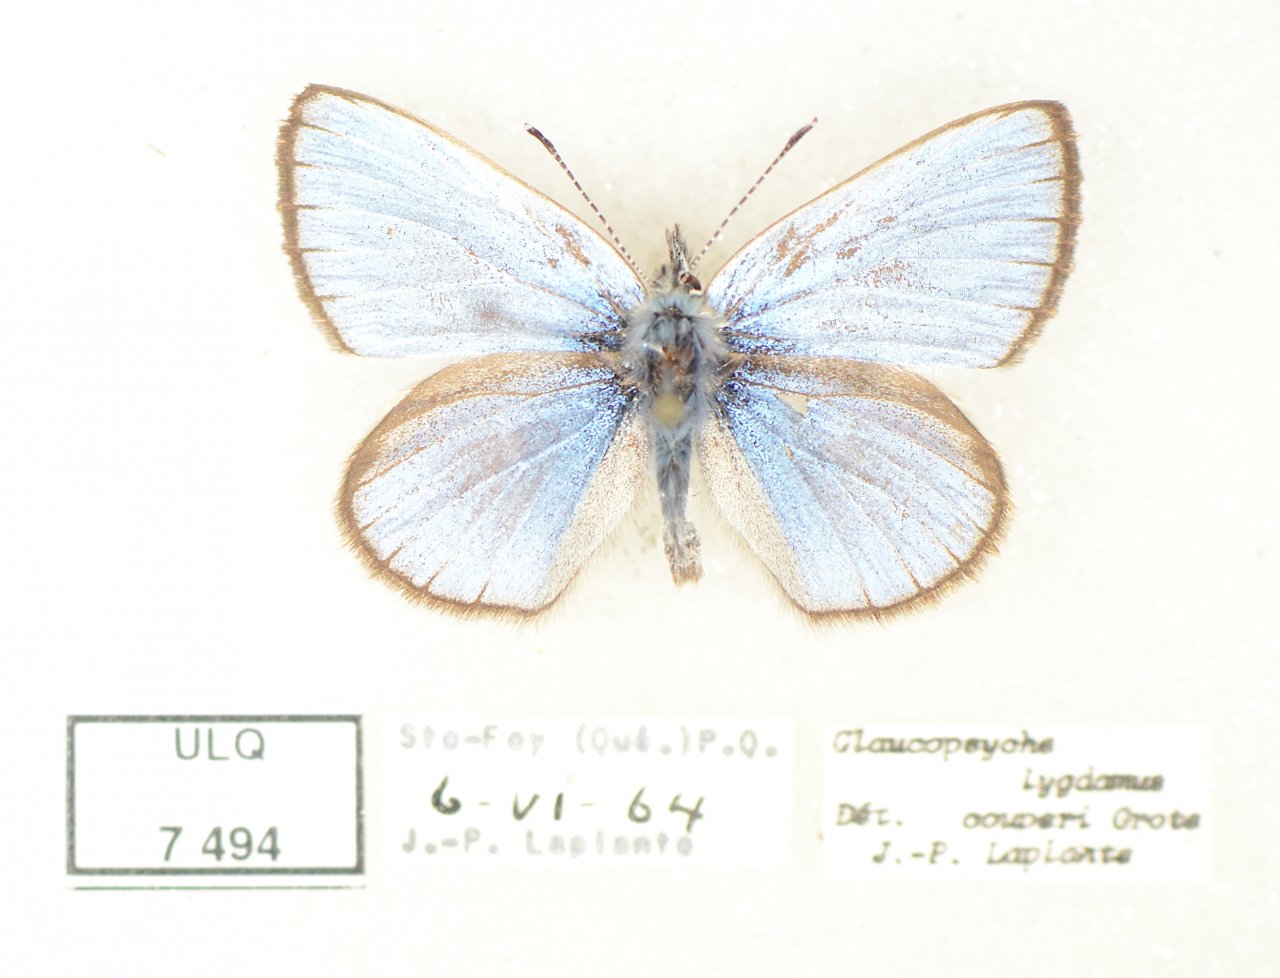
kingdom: Animalia
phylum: Arthropoda
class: Insecta
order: Lepidoptera
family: Lycaenidae
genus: Glaucopsyche
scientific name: Glaucopsyche lygdamus
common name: Silvery Blue
